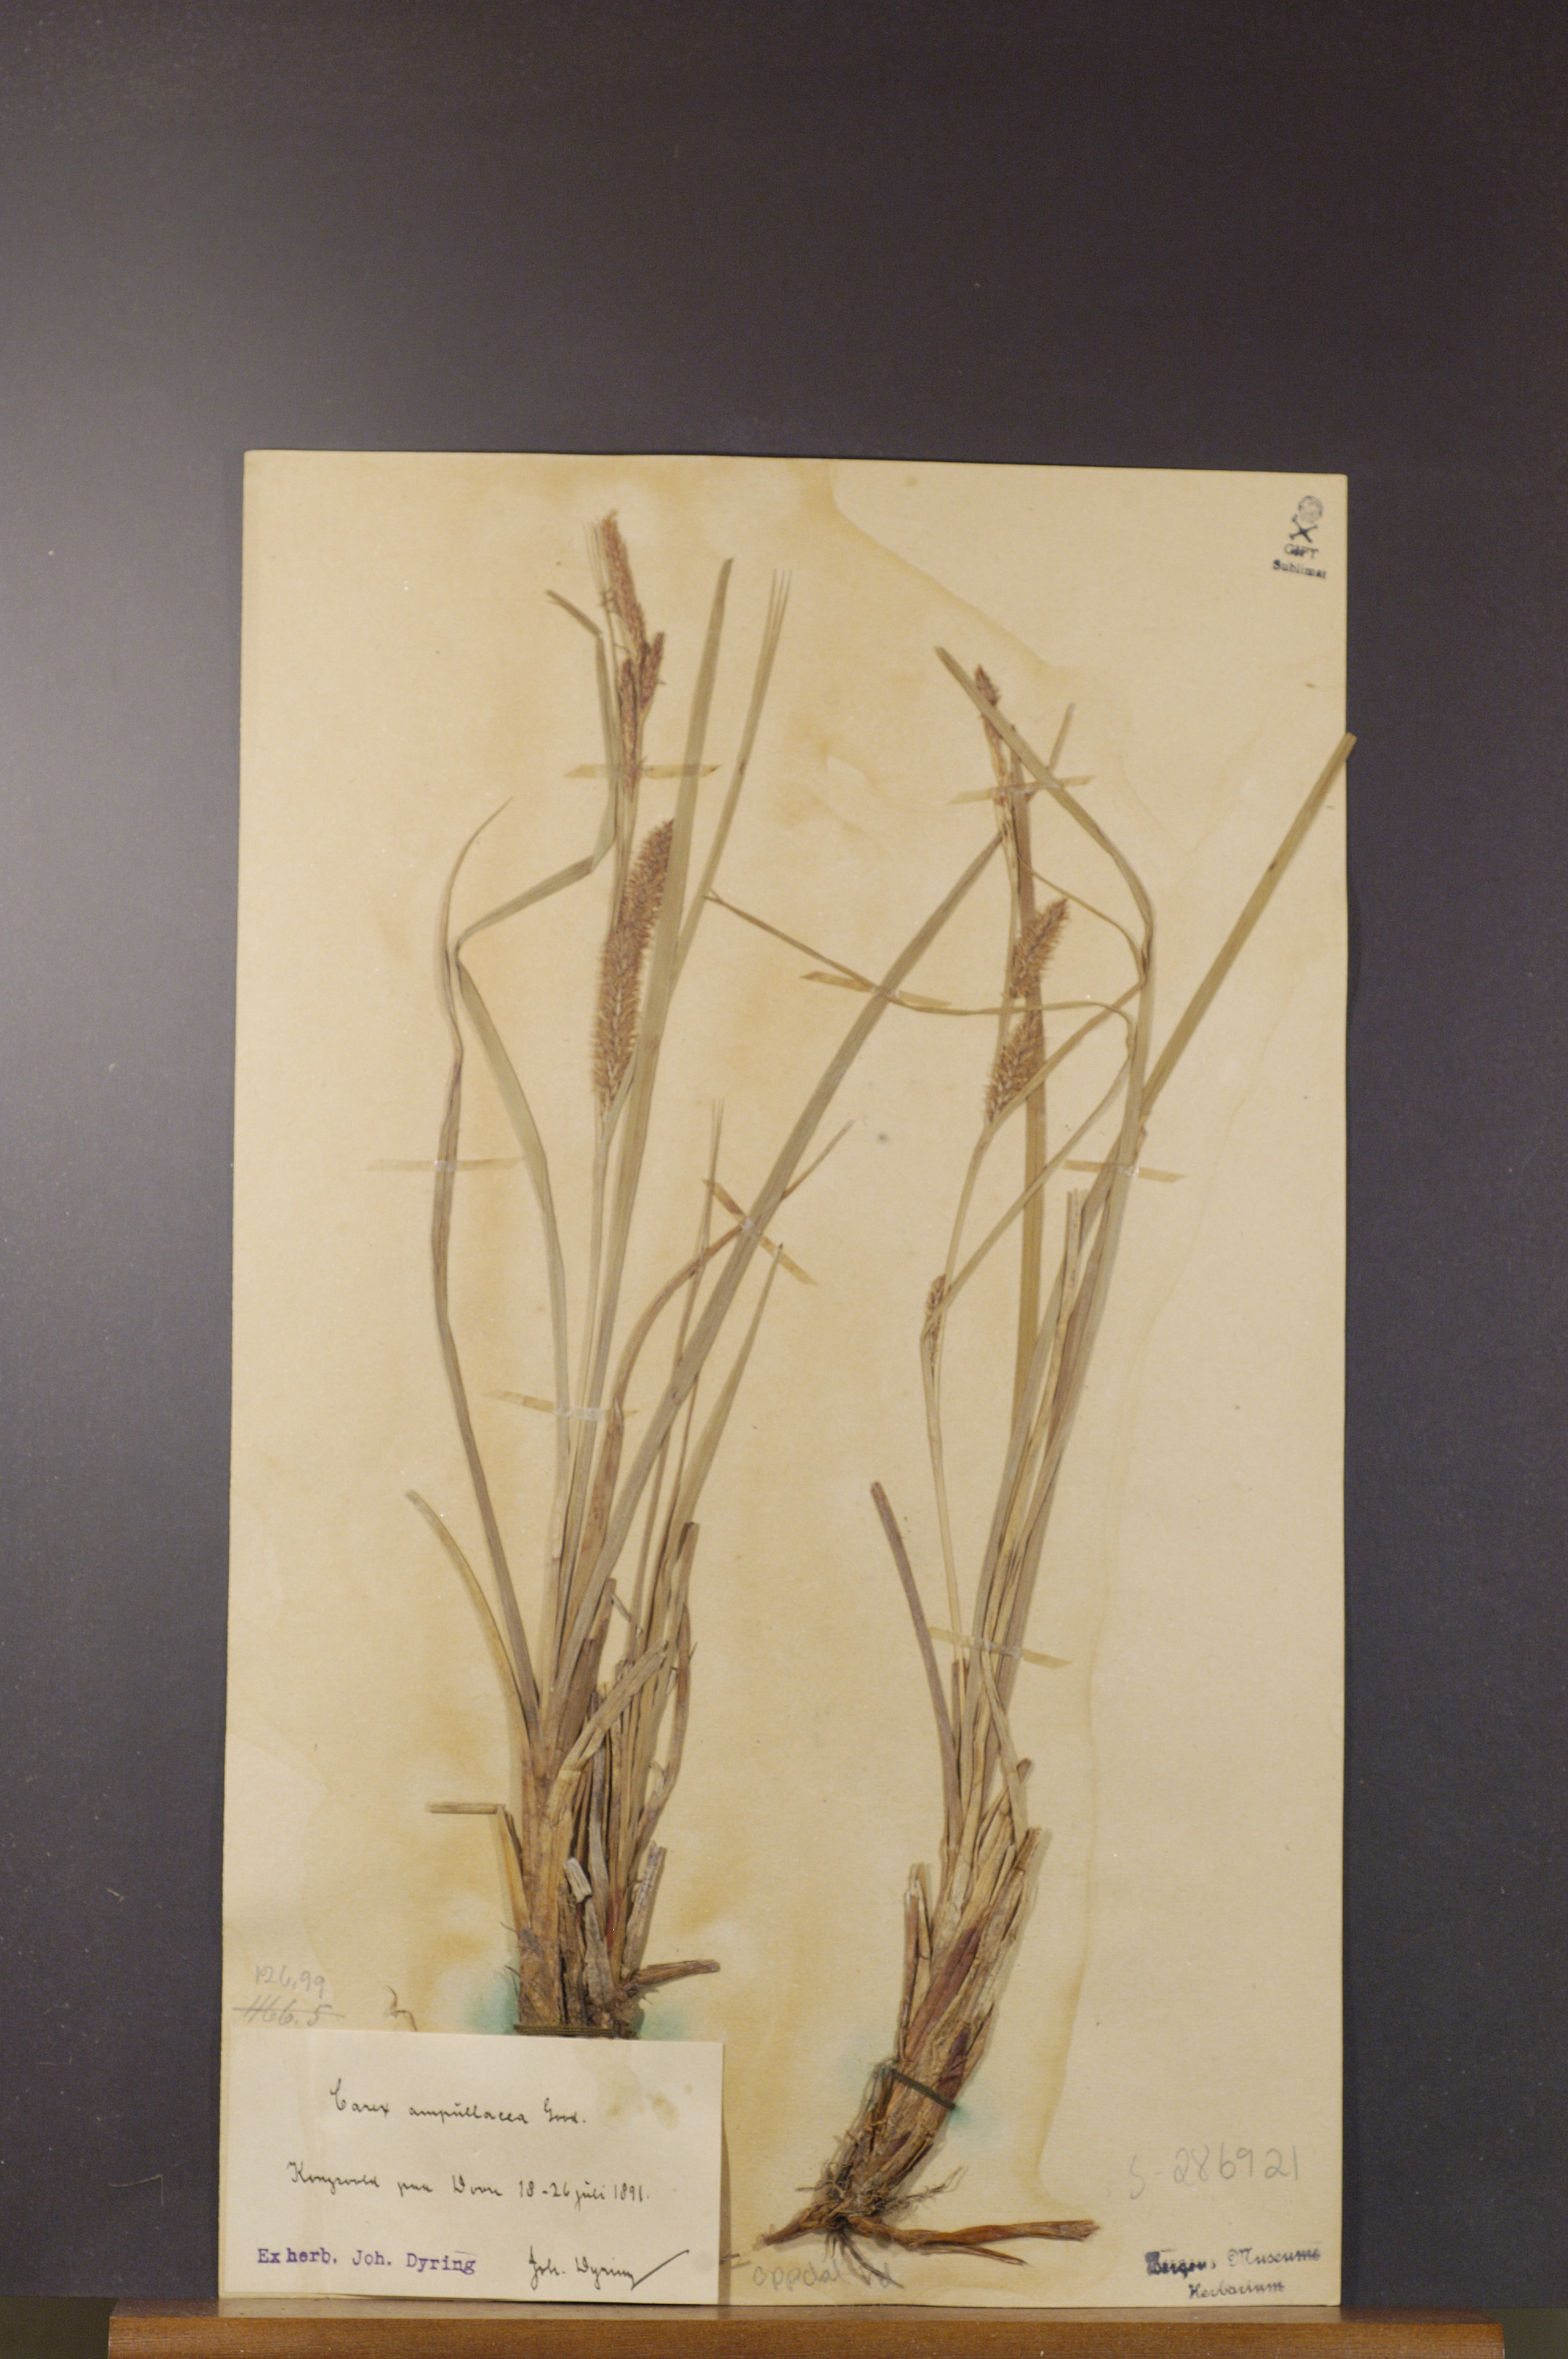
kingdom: Plantae
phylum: Tracheophyta
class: Liliopsida
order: Poales
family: Cyperaceae
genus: Carex
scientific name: Carex rostrata
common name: Bottle sedge
